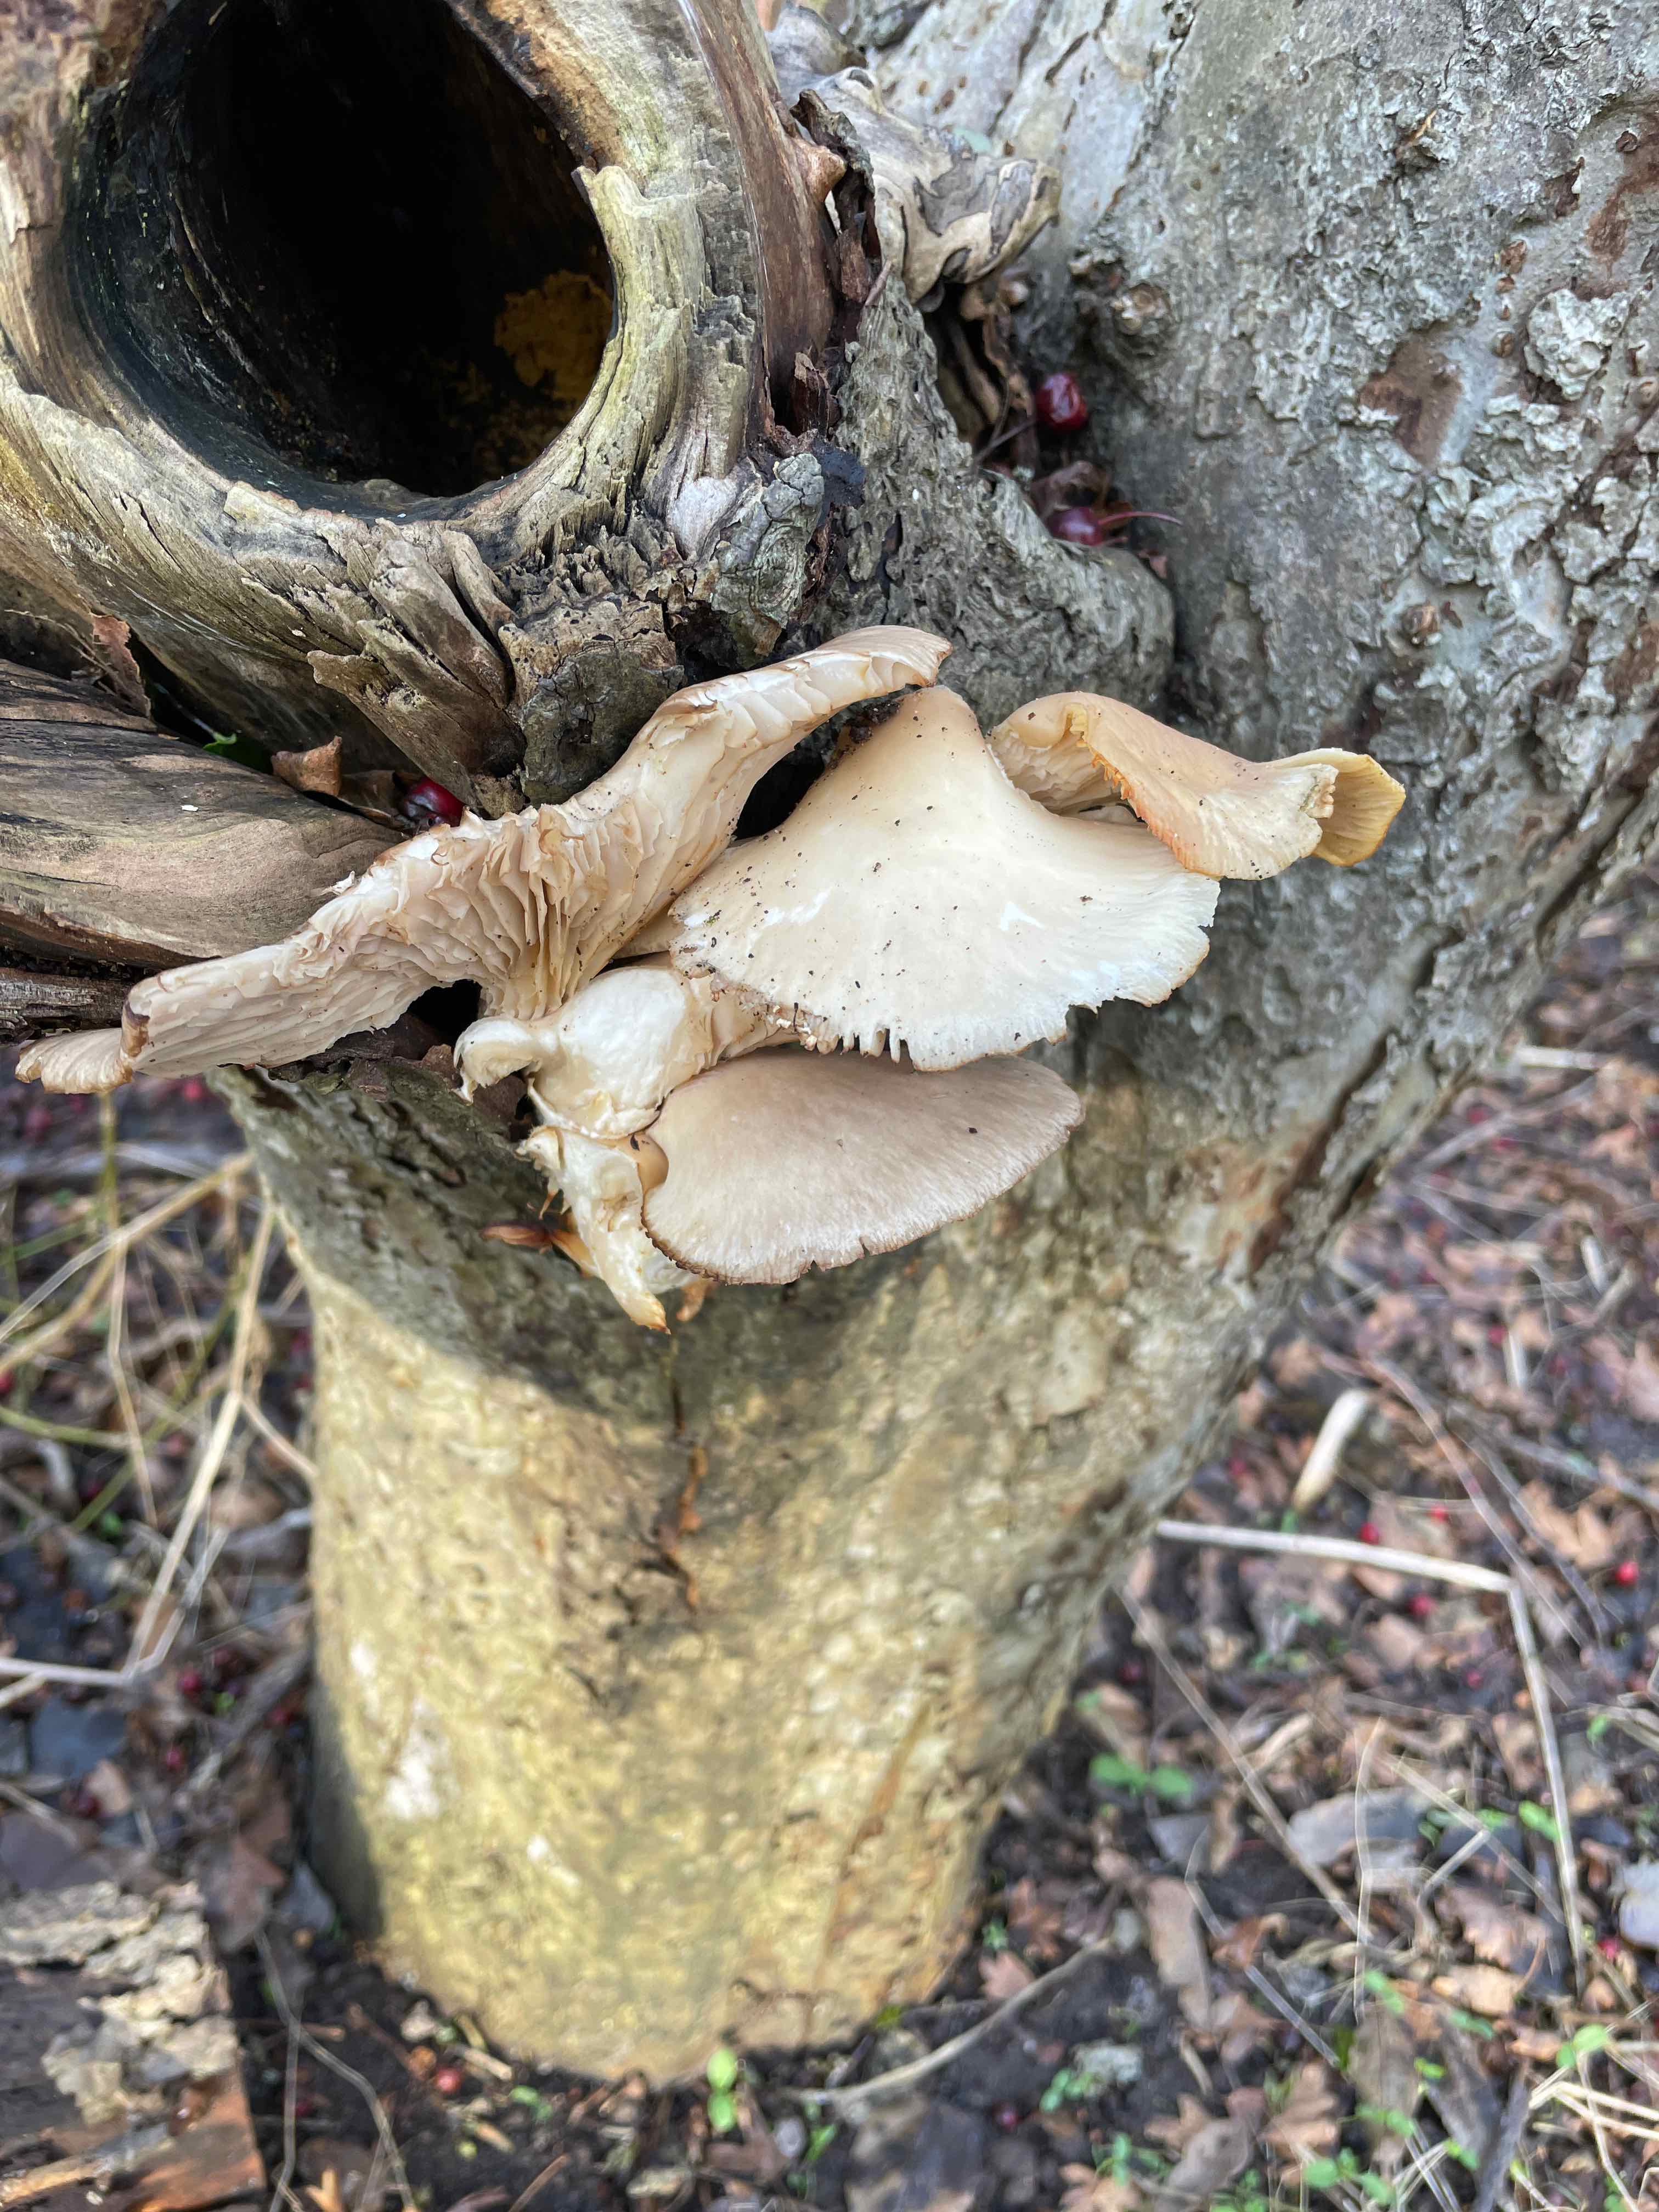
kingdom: Fungi
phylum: Basidiomycota
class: Agaricomycetes
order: Agaricales
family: Pleurotaceae
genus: Pleurotus
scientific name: Pleurotus ostreatus
